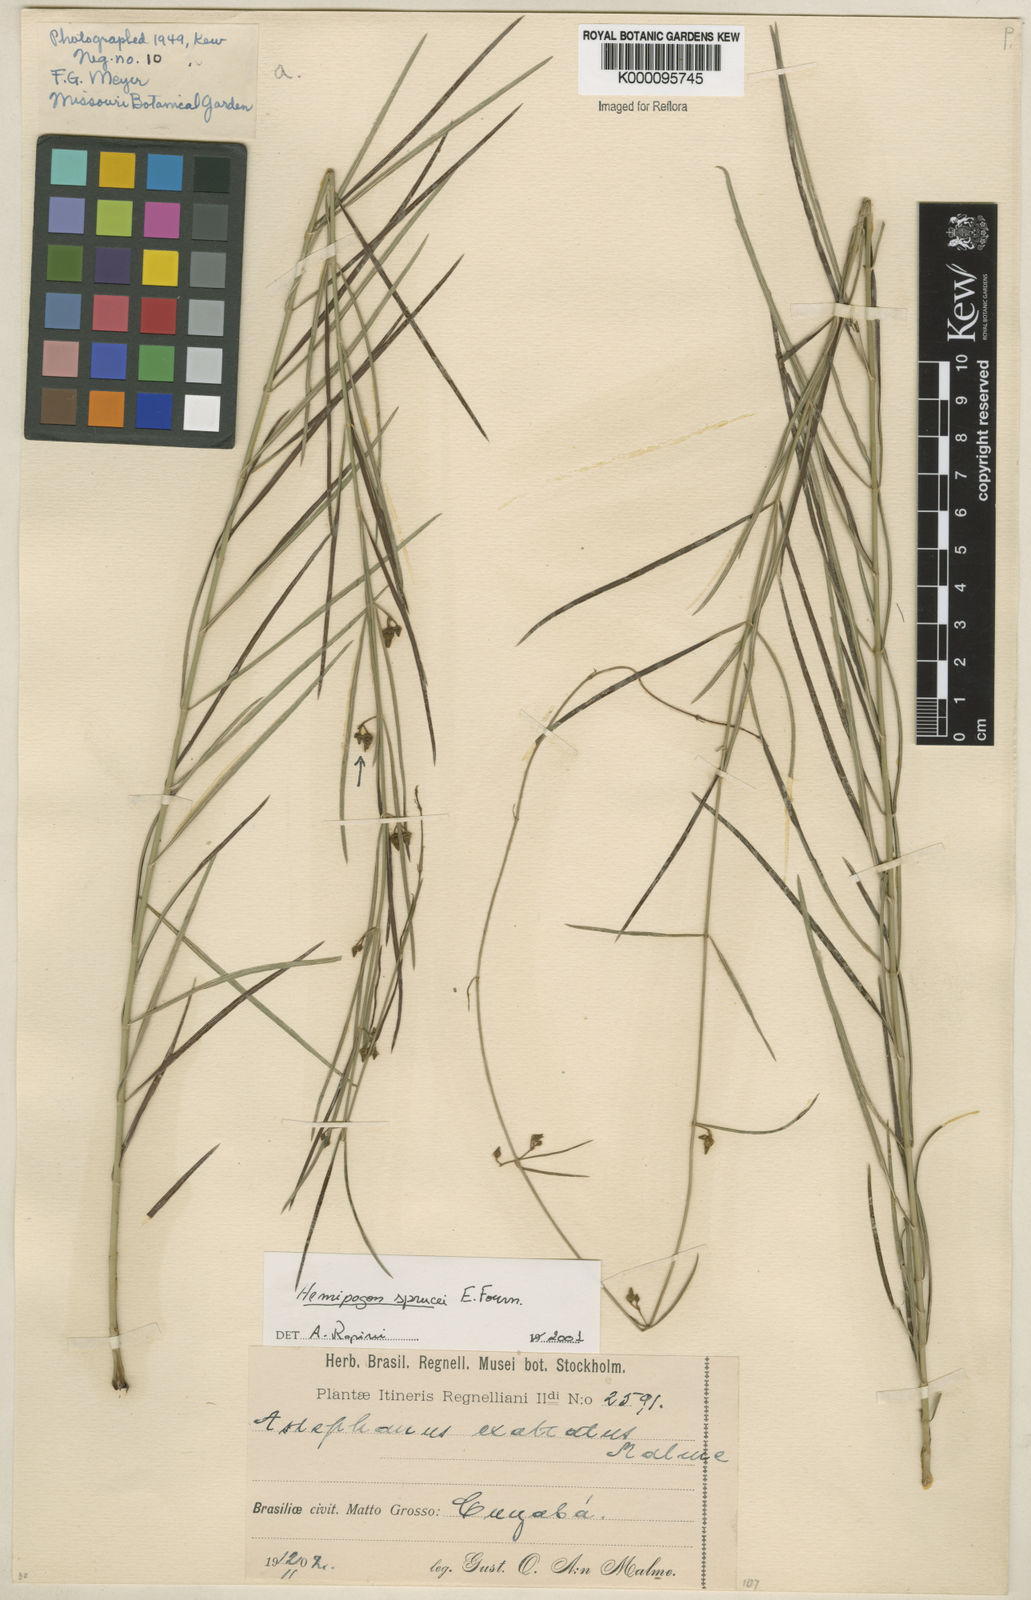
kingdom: Plantae
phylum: Tracheophyta
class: Magnoliopsida
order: Gentianales
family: Apocynaceae
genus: Hemipogon
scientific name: Hemipogon sprucei
